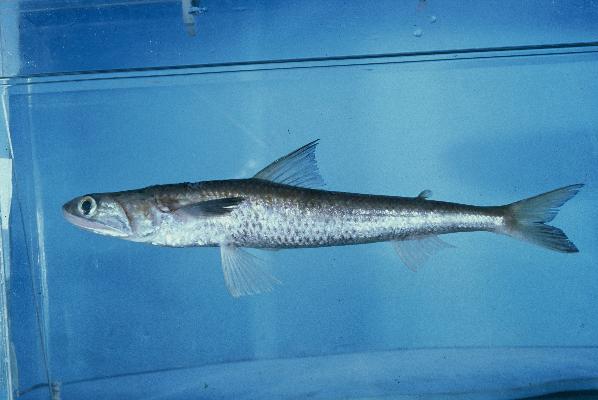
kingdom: Animalia
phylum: Chordata
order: Aulopiformes
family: Synodontidae
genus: Saurida
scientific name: Saurida
